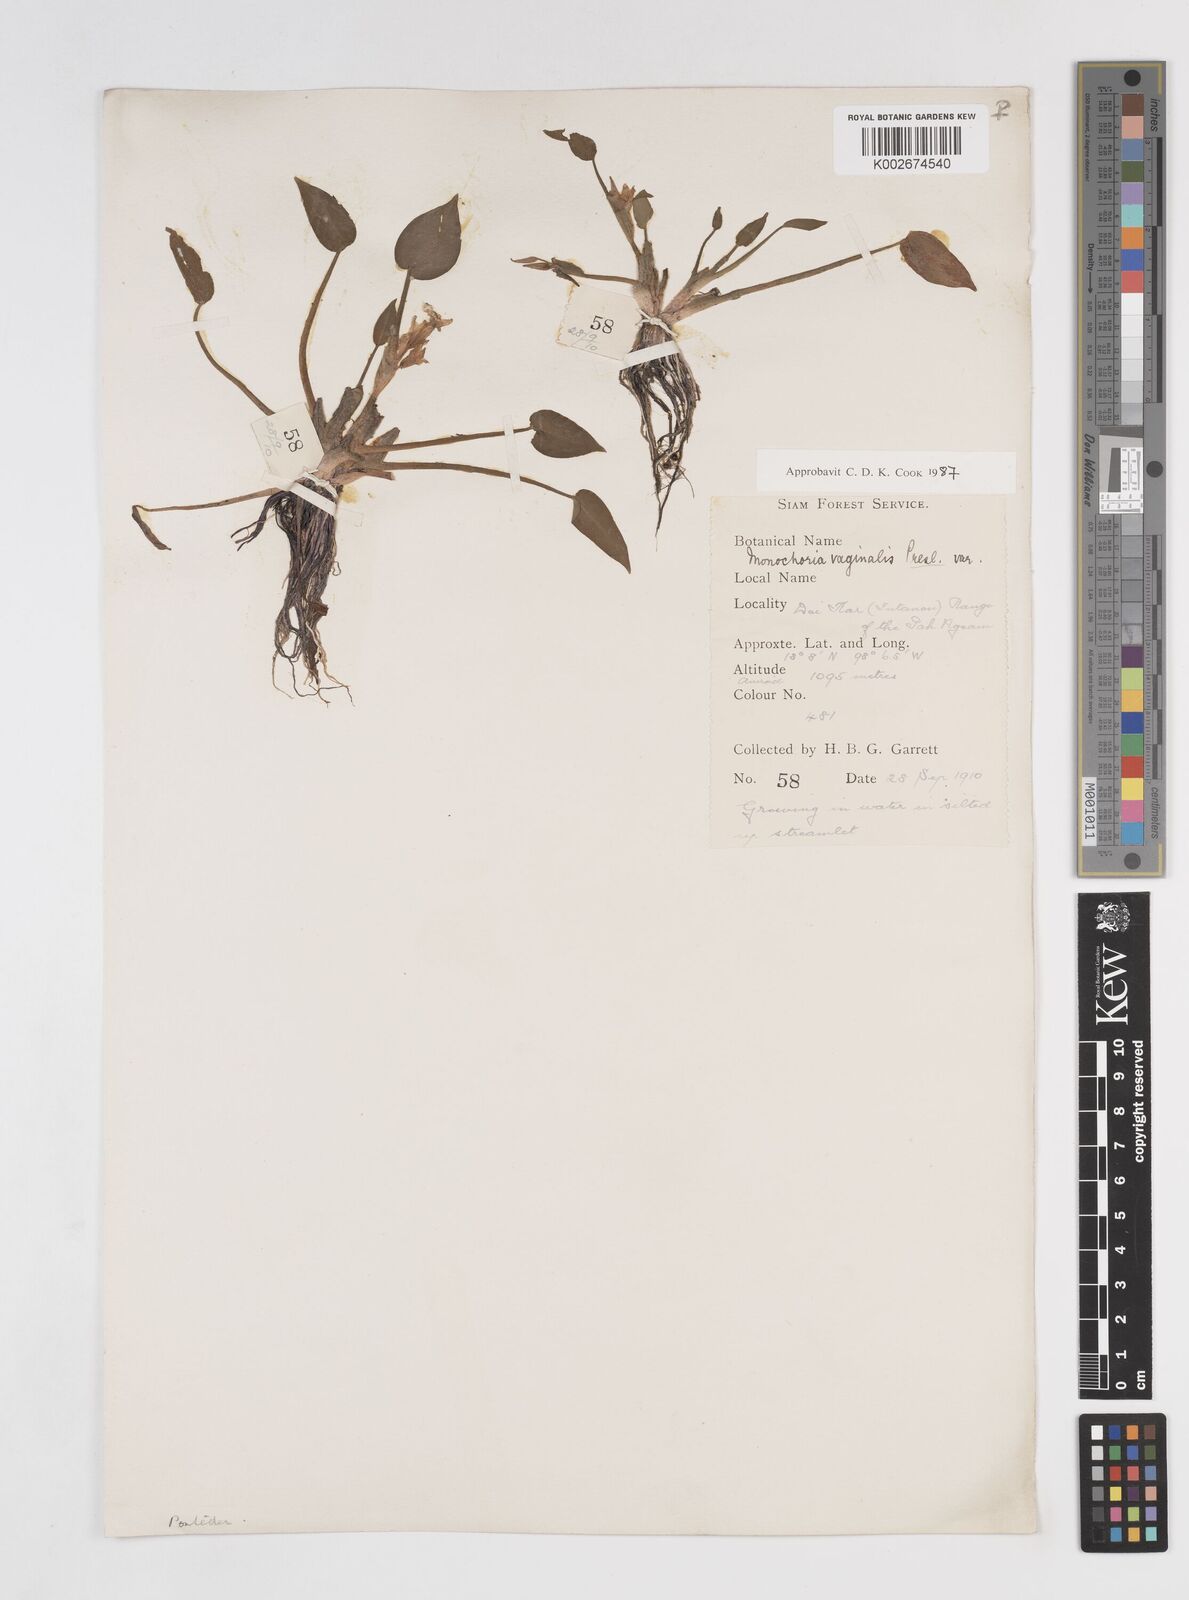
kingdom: Plantae
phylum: Tracheophyta
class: Liliopsida
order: Commelinales
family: Pontederiaceae
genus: Pontederia
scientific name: Pontederia vaginalis
